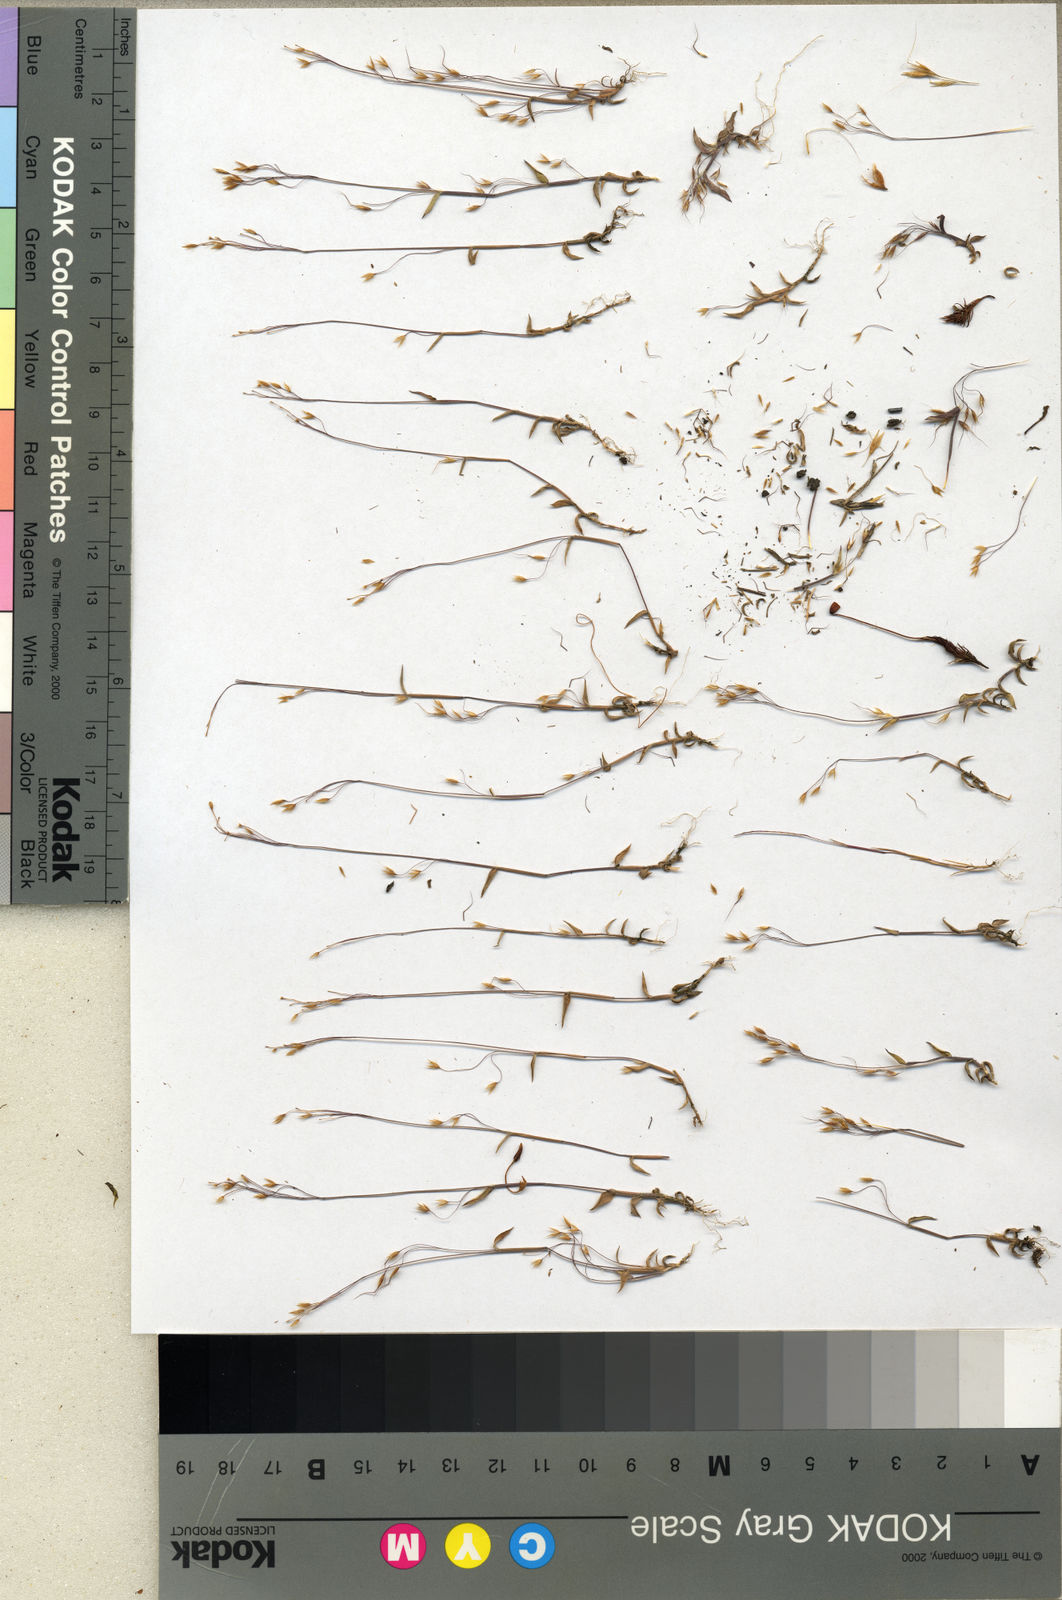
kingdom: Plantae
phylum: Tracheophyta
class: Liliopsida
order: Poales
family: Poaceae
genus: Trichopteryx
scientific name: Trichopteryx elegantula
